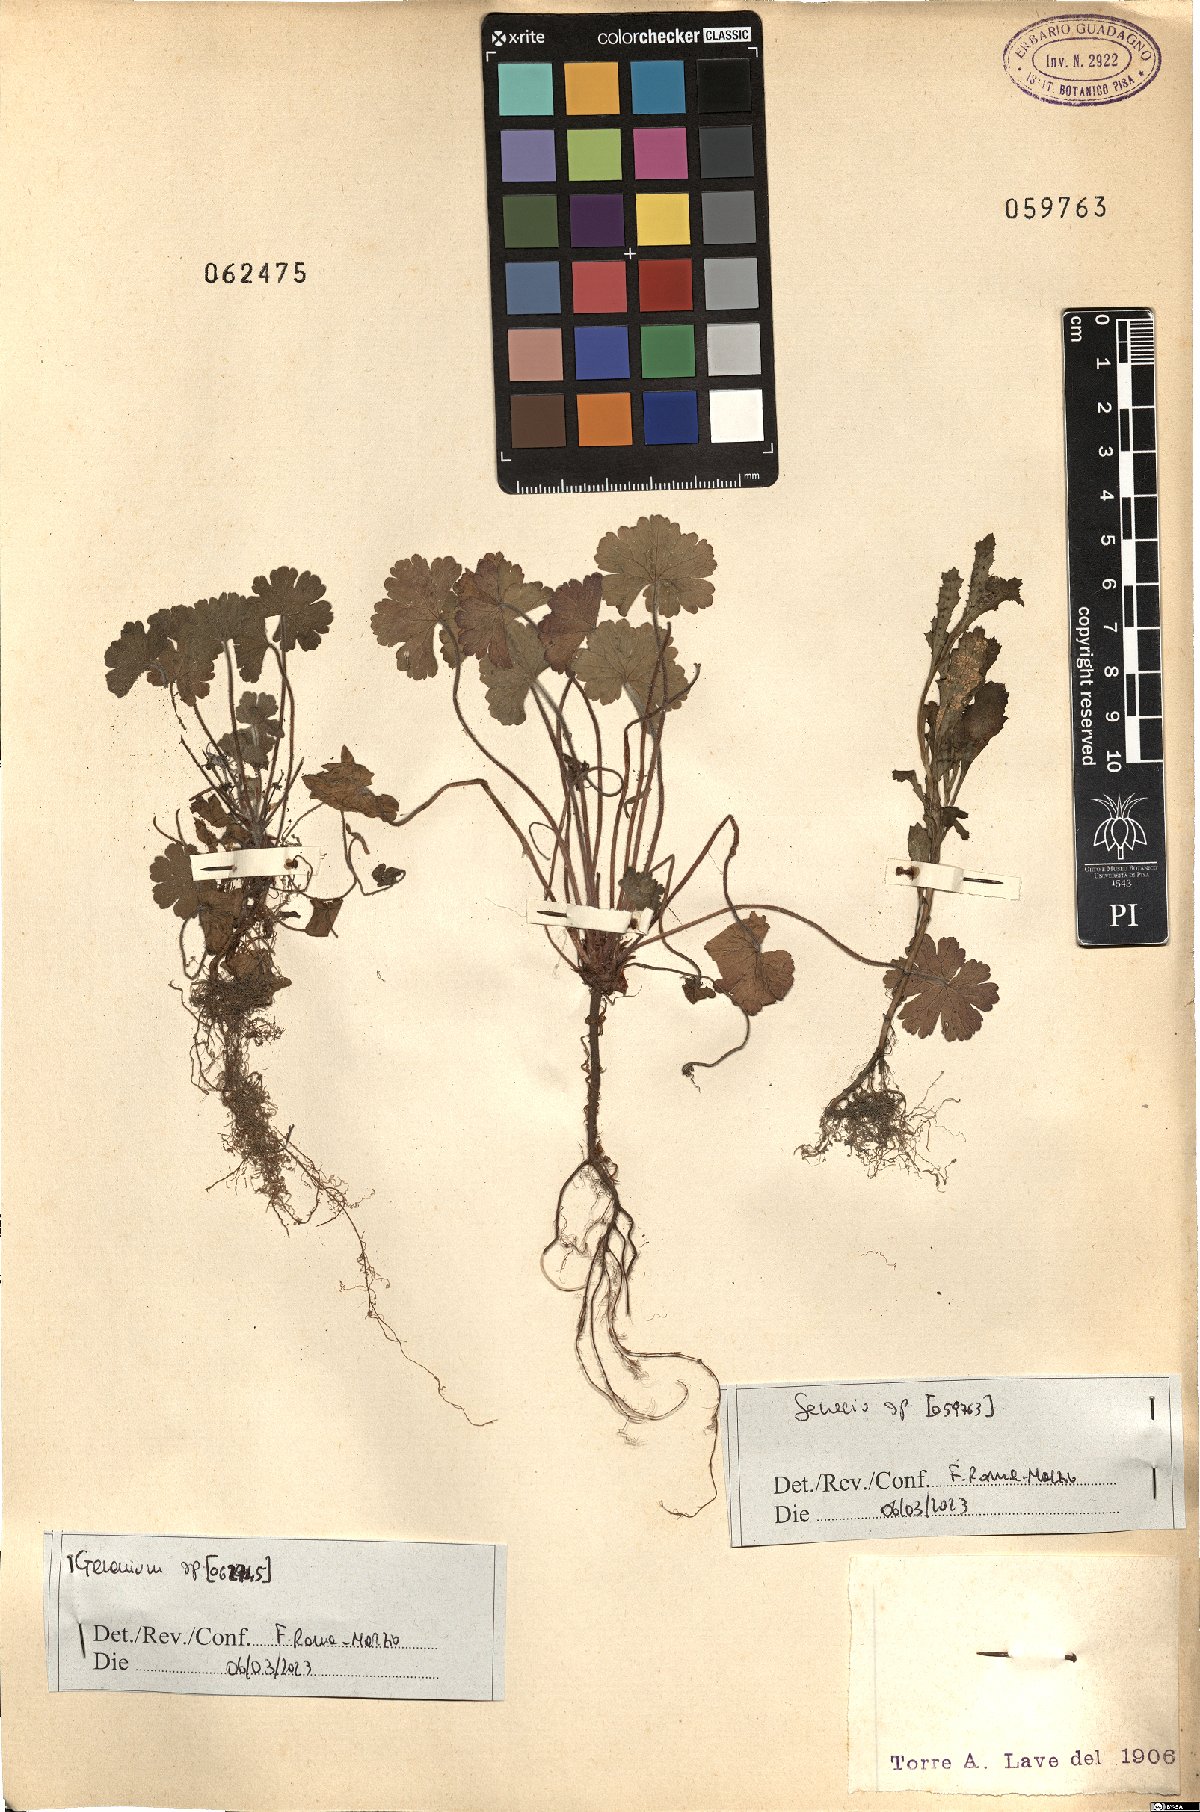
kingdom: Plantae
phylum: Tracheophyta
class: Magnoliopsida
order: Geraniales
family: Geraniaceae
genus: Geranium
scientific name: Geranium
